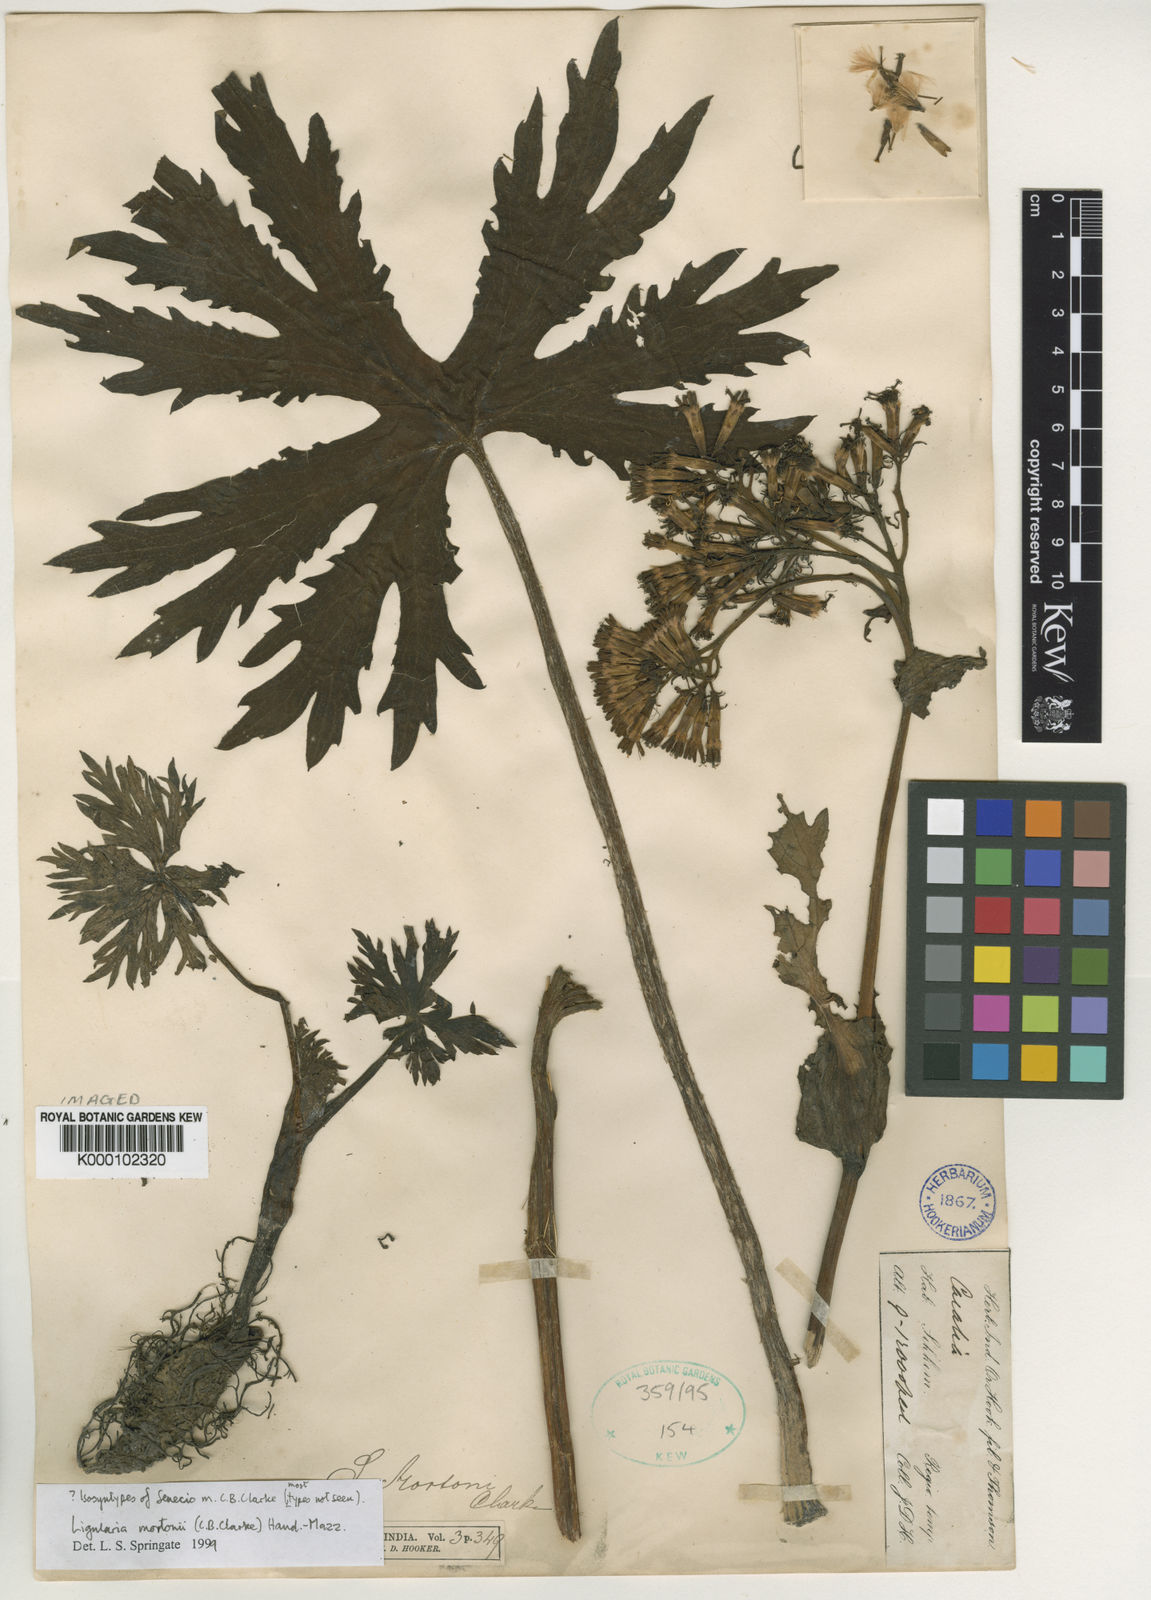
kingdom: Plantae
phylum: Tracheophyta
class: Magnoliopsida
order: Asterales
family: Asteraceae
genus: Ligularia
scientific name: Ligularia mortonii
